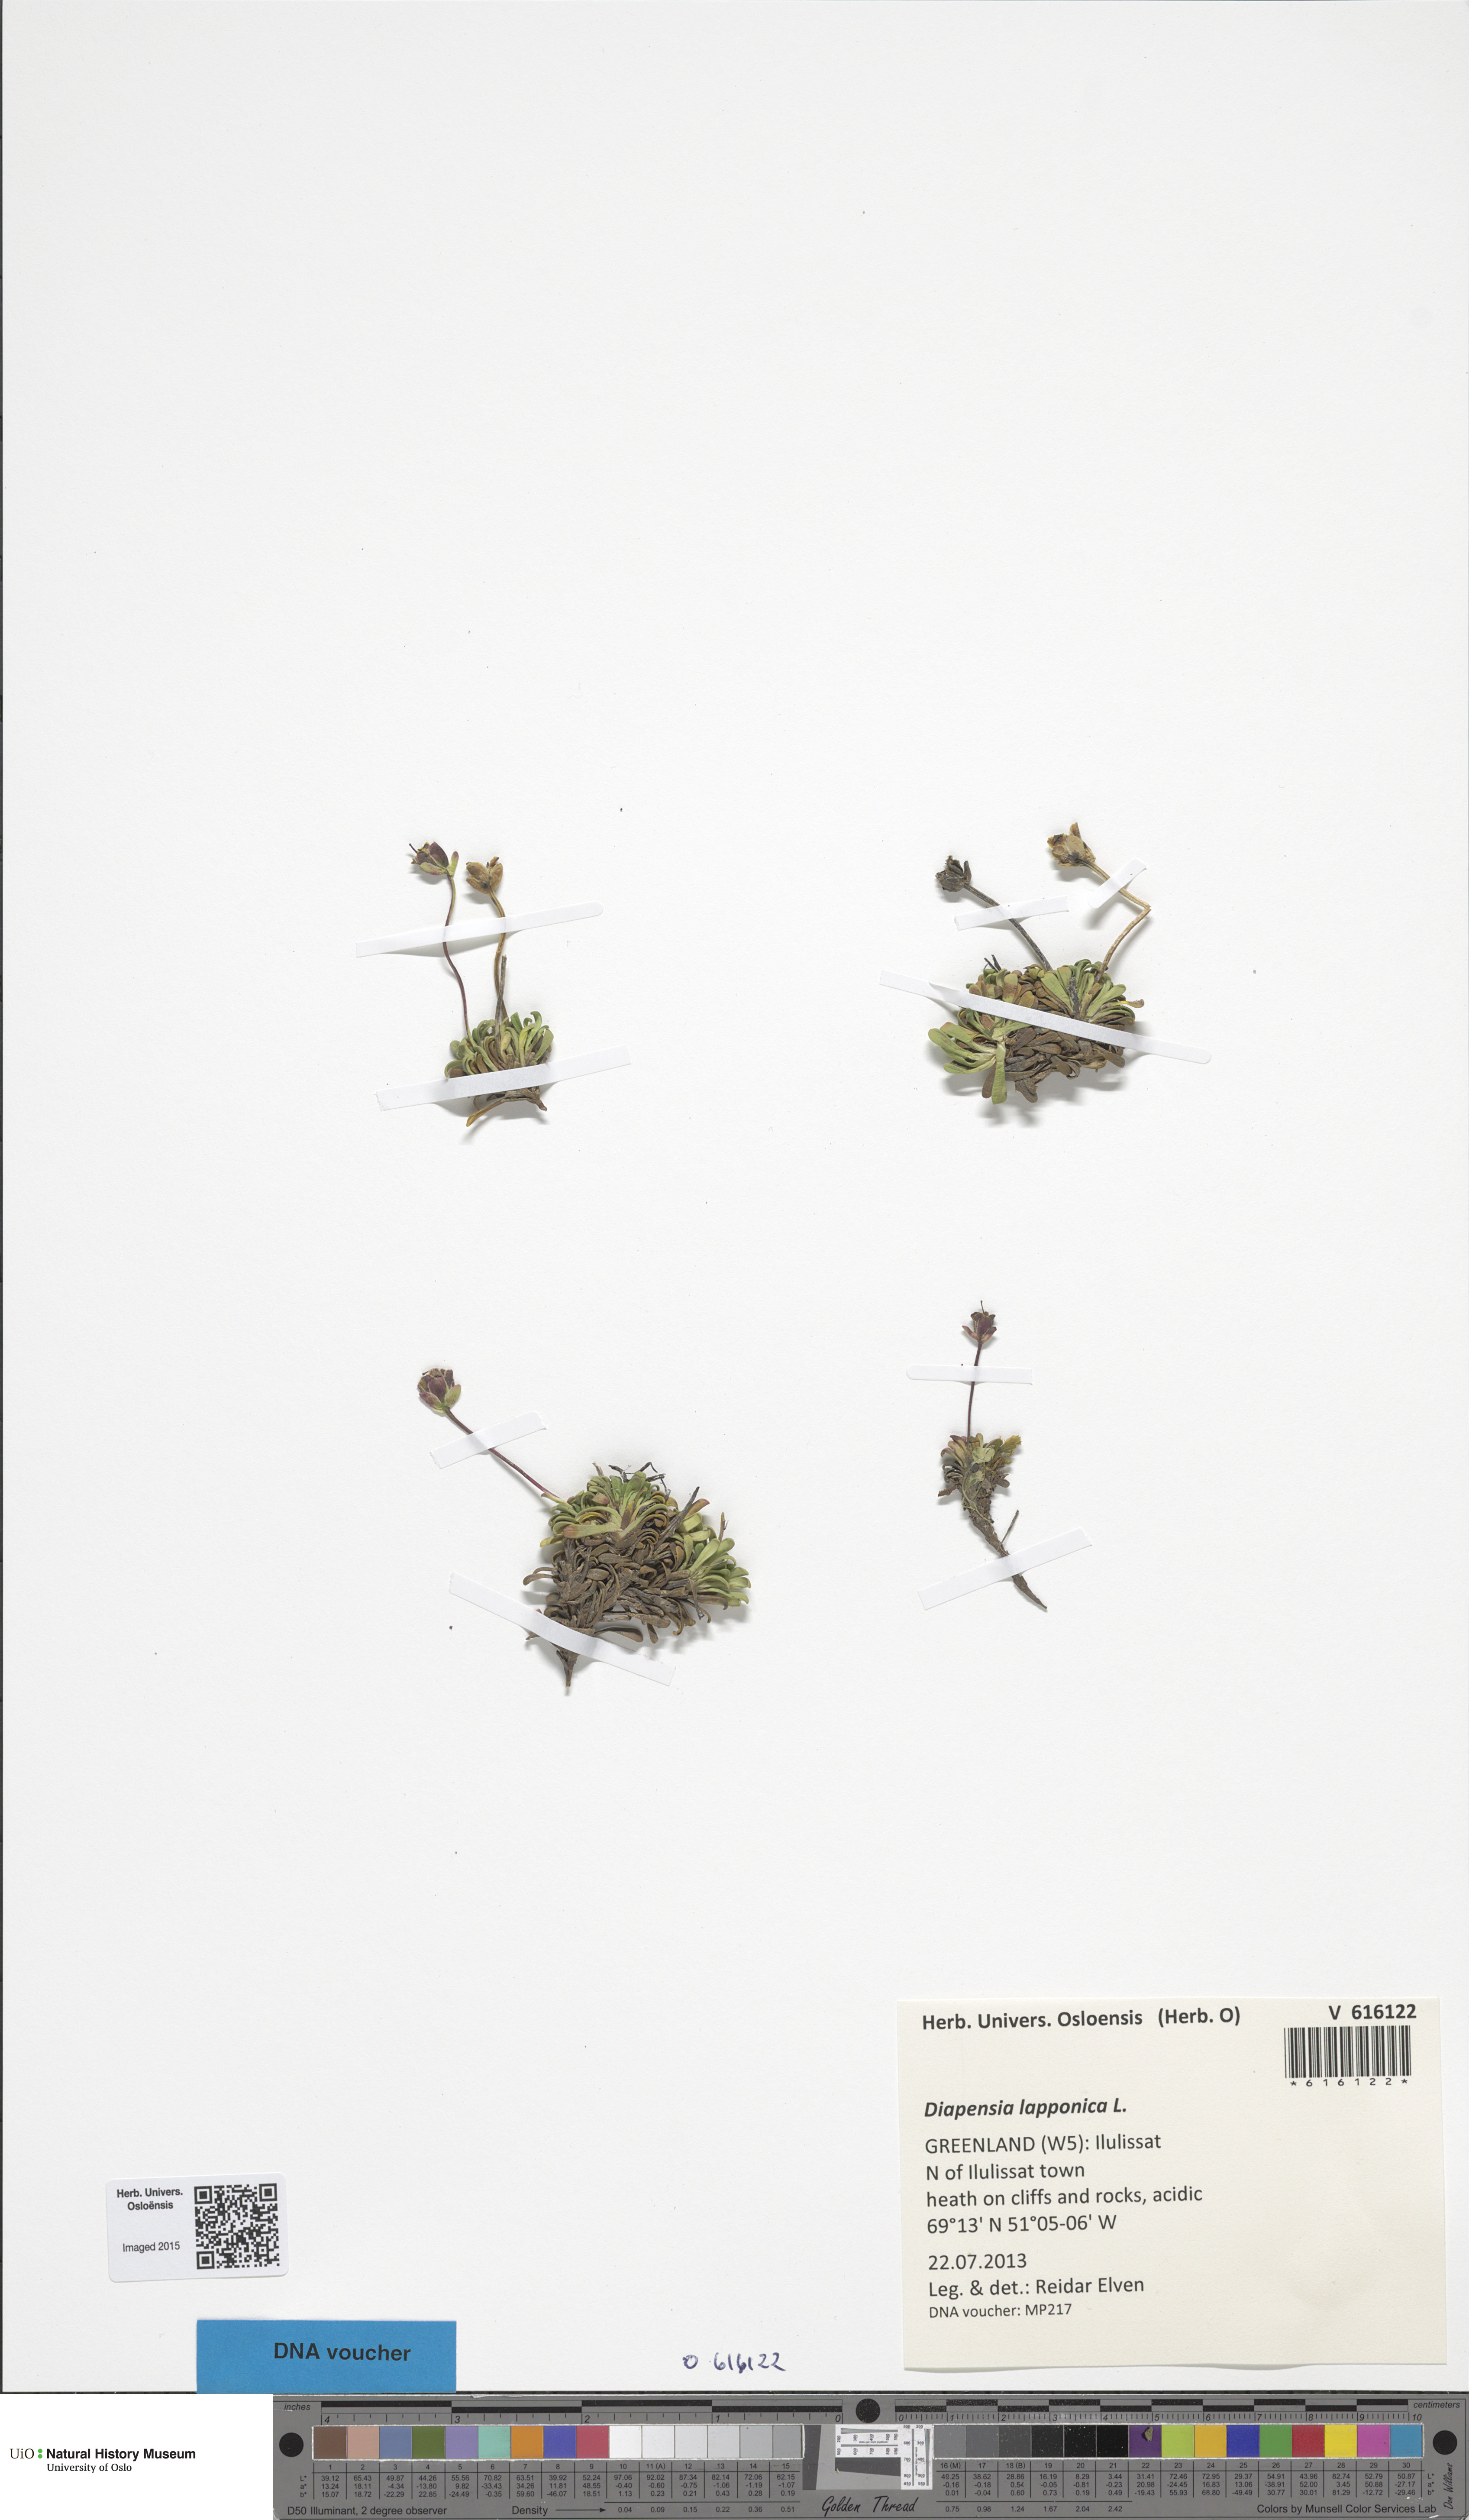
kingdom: Plantae
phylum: Tracheophyta
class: Magnoliopsida
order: Ericales
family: Diapensiaceae
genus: Diapensia
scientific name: Diapensia lapponica
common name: Diapensia
